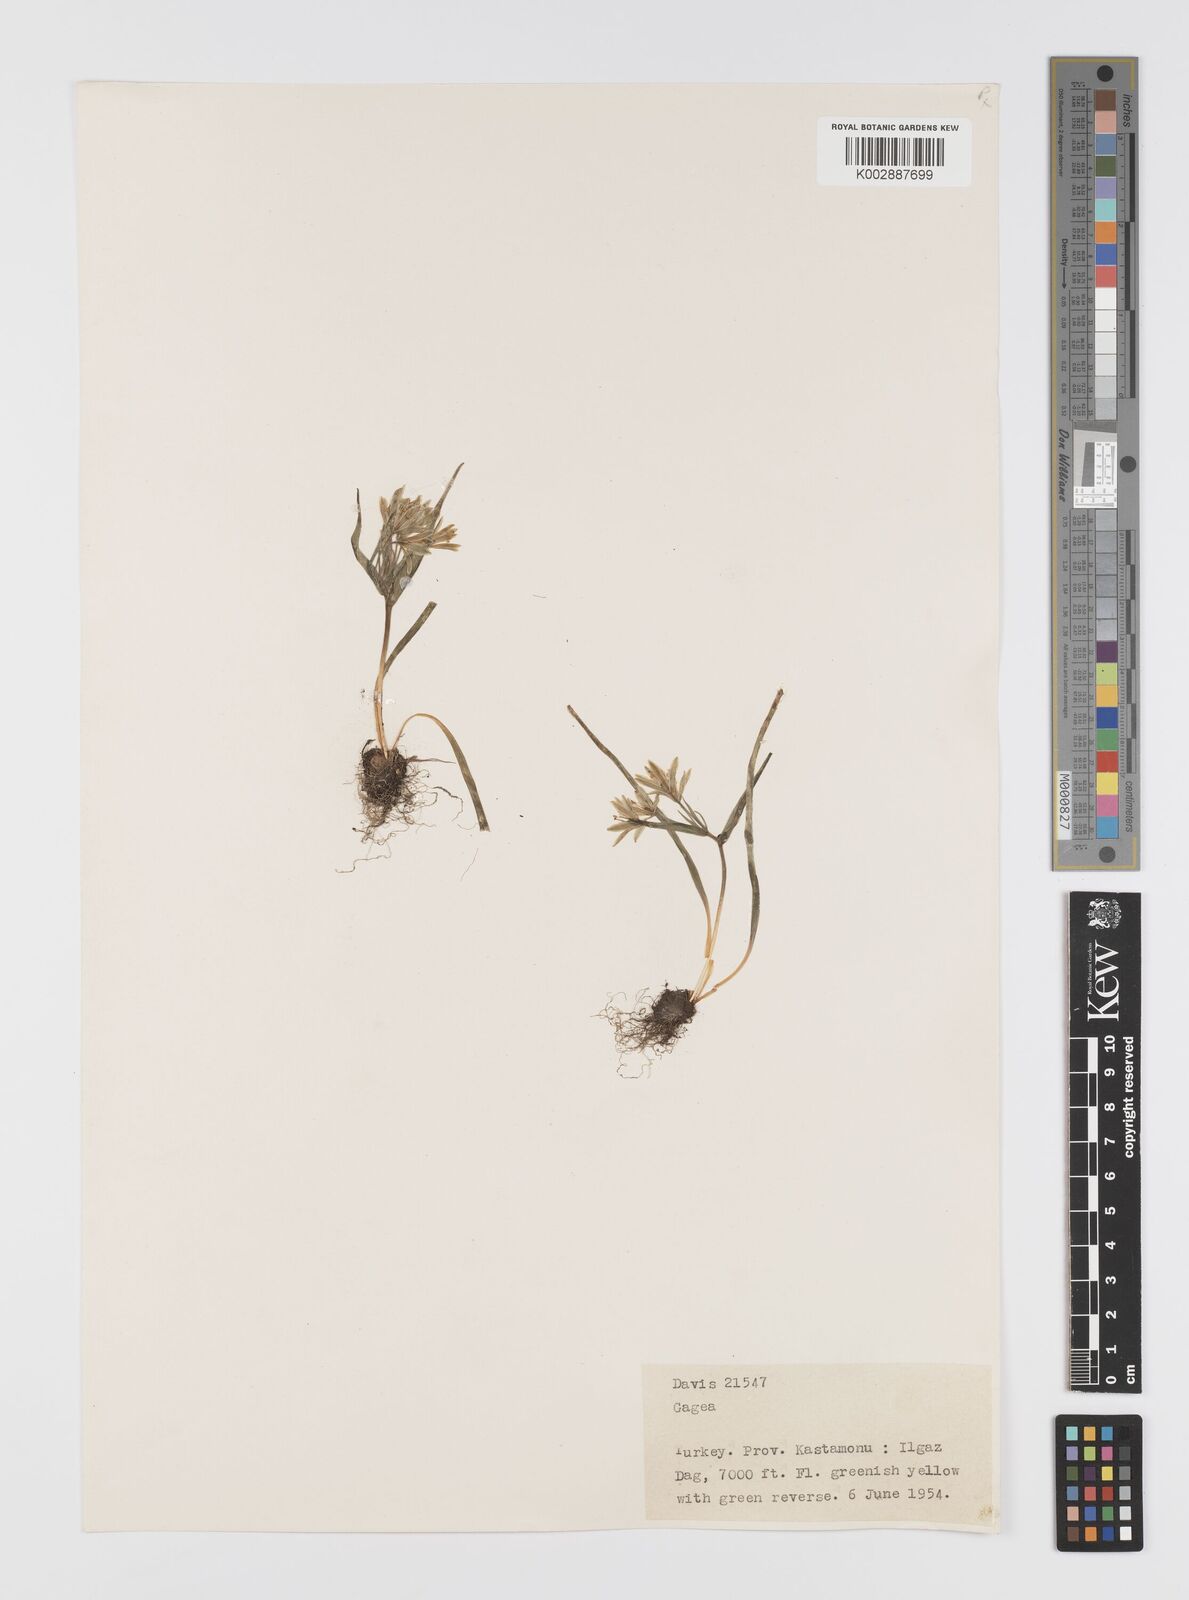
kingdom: Plantae
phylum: Tracheophyta
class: Liliopsida
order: Liliales
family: Liliaceae
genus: Gagea
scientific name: Gagea granatellii
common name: Granatelli’s gagea
